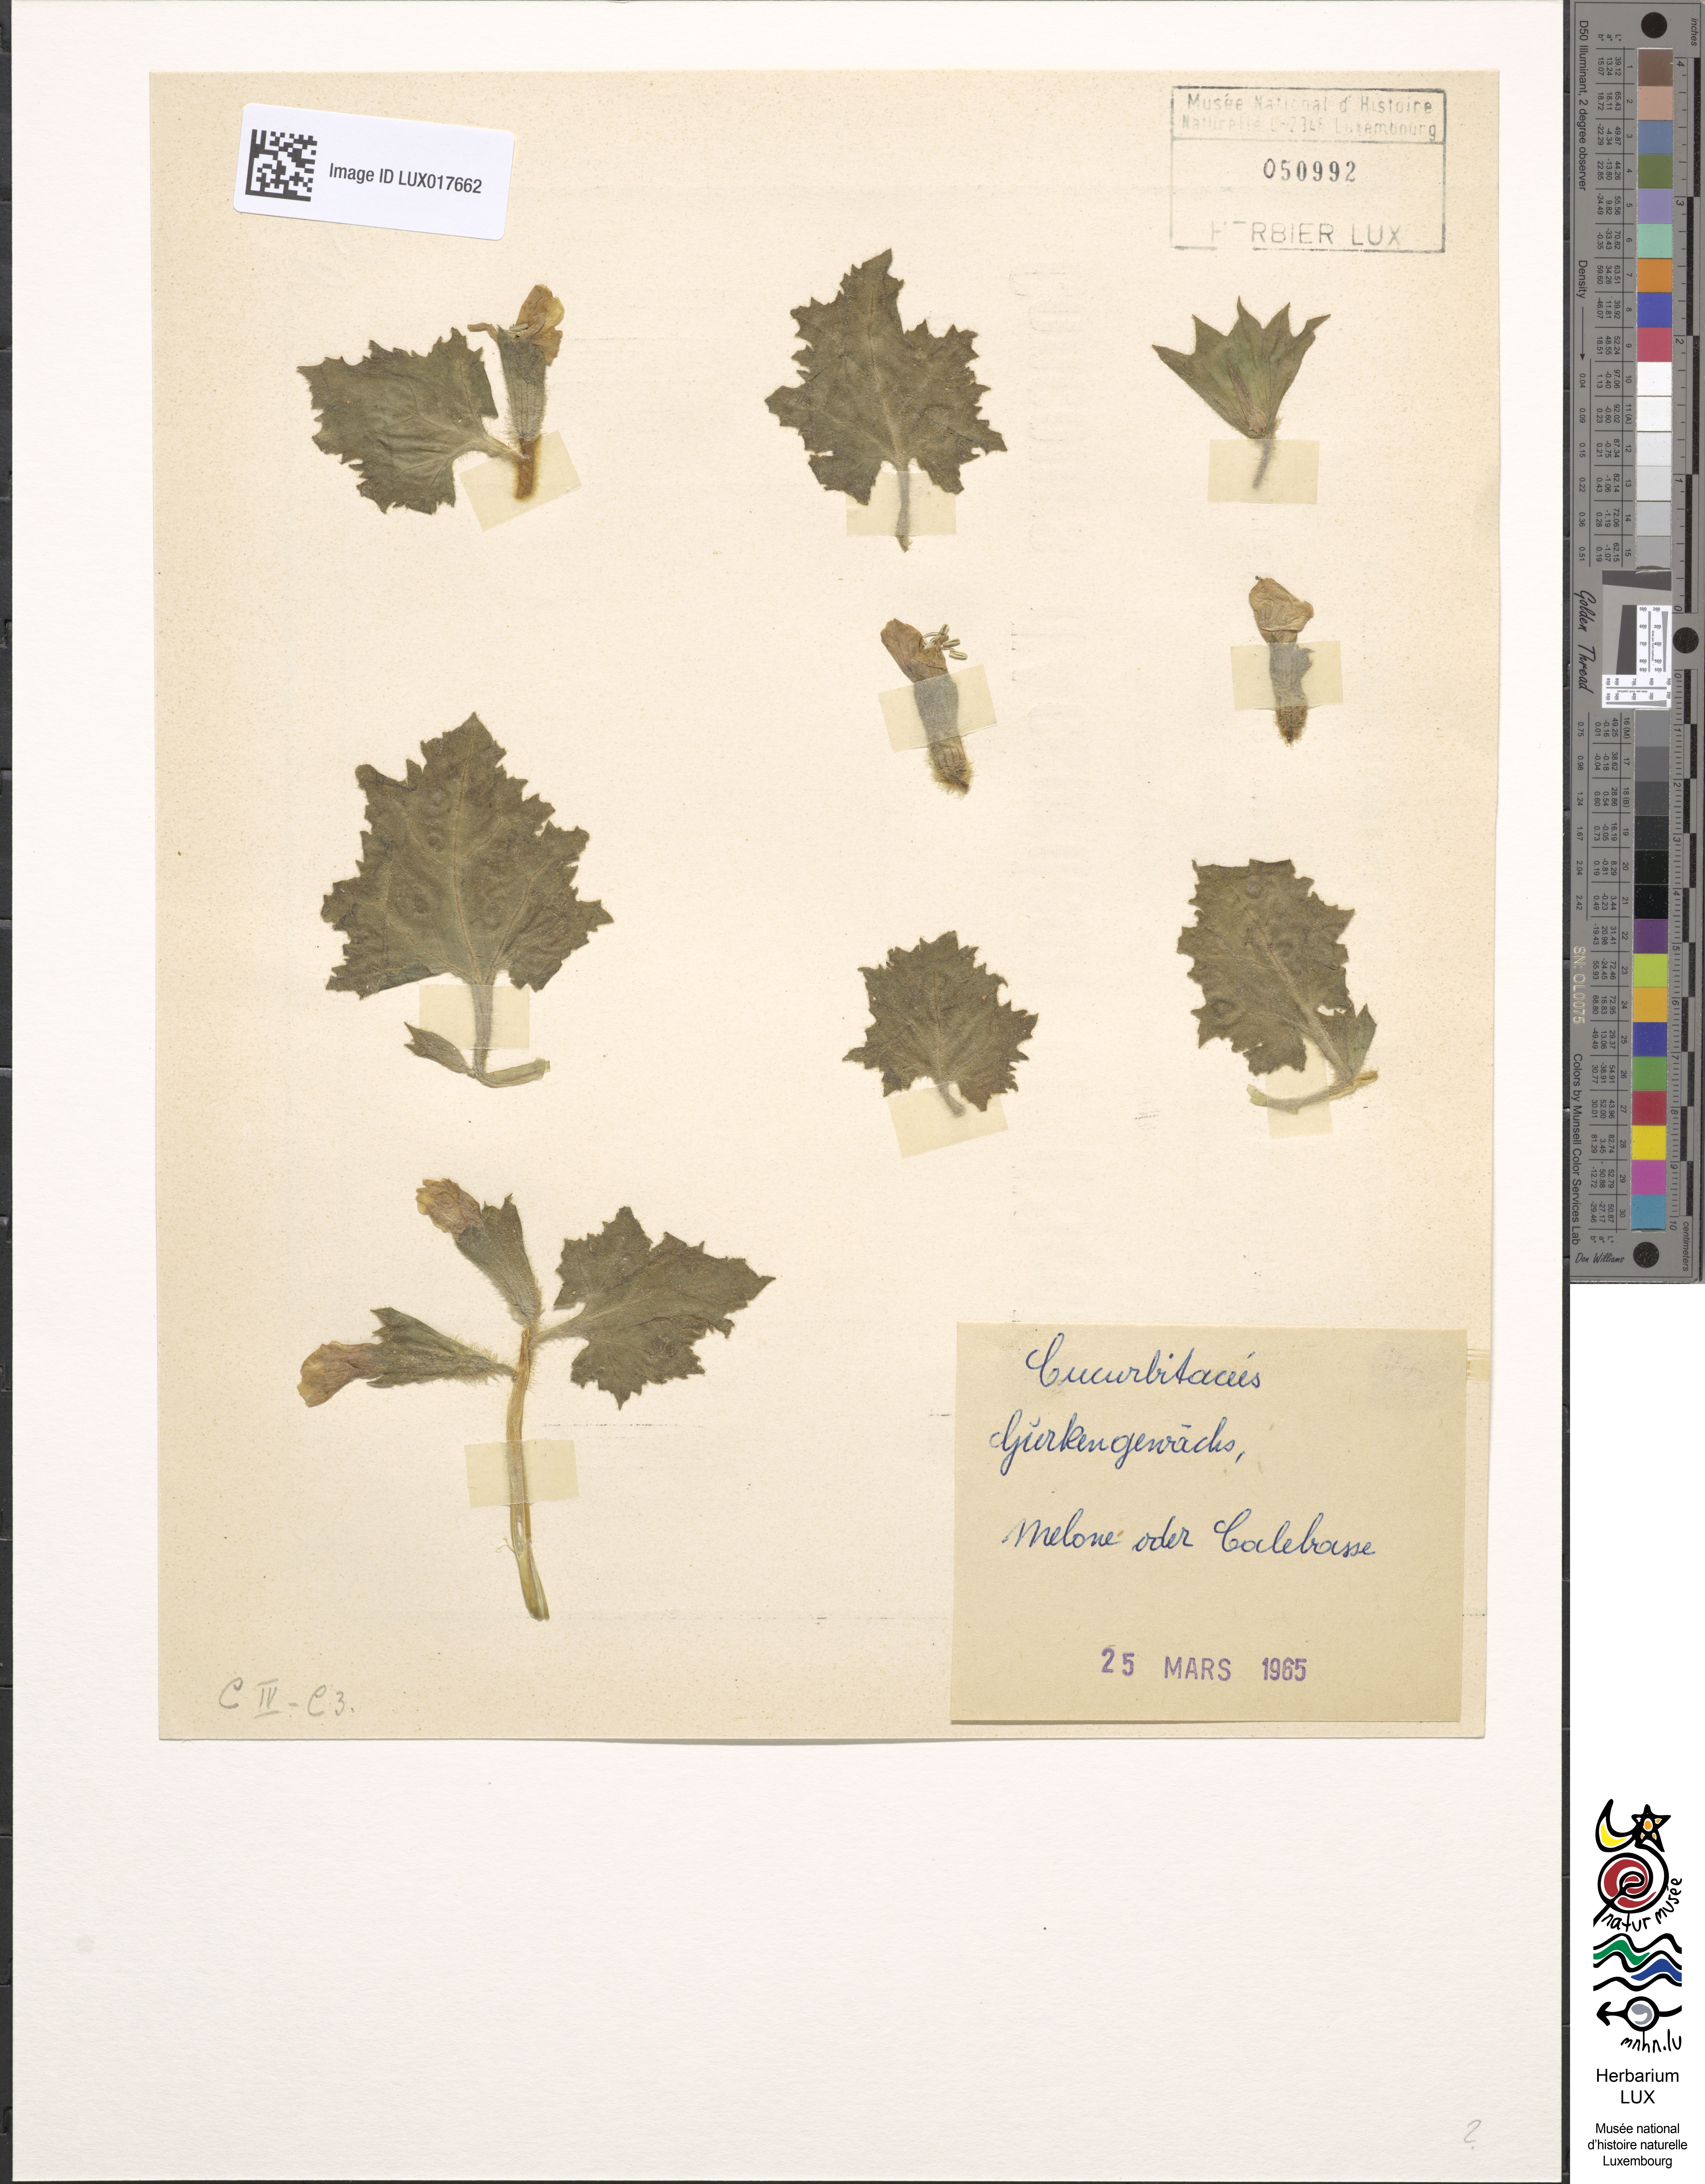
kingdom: Plantae
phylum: Tracheophyta
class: Magnoliopsida
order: Cucurbitales
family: Cucurbitaceae
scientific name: Cucurbitaceae
